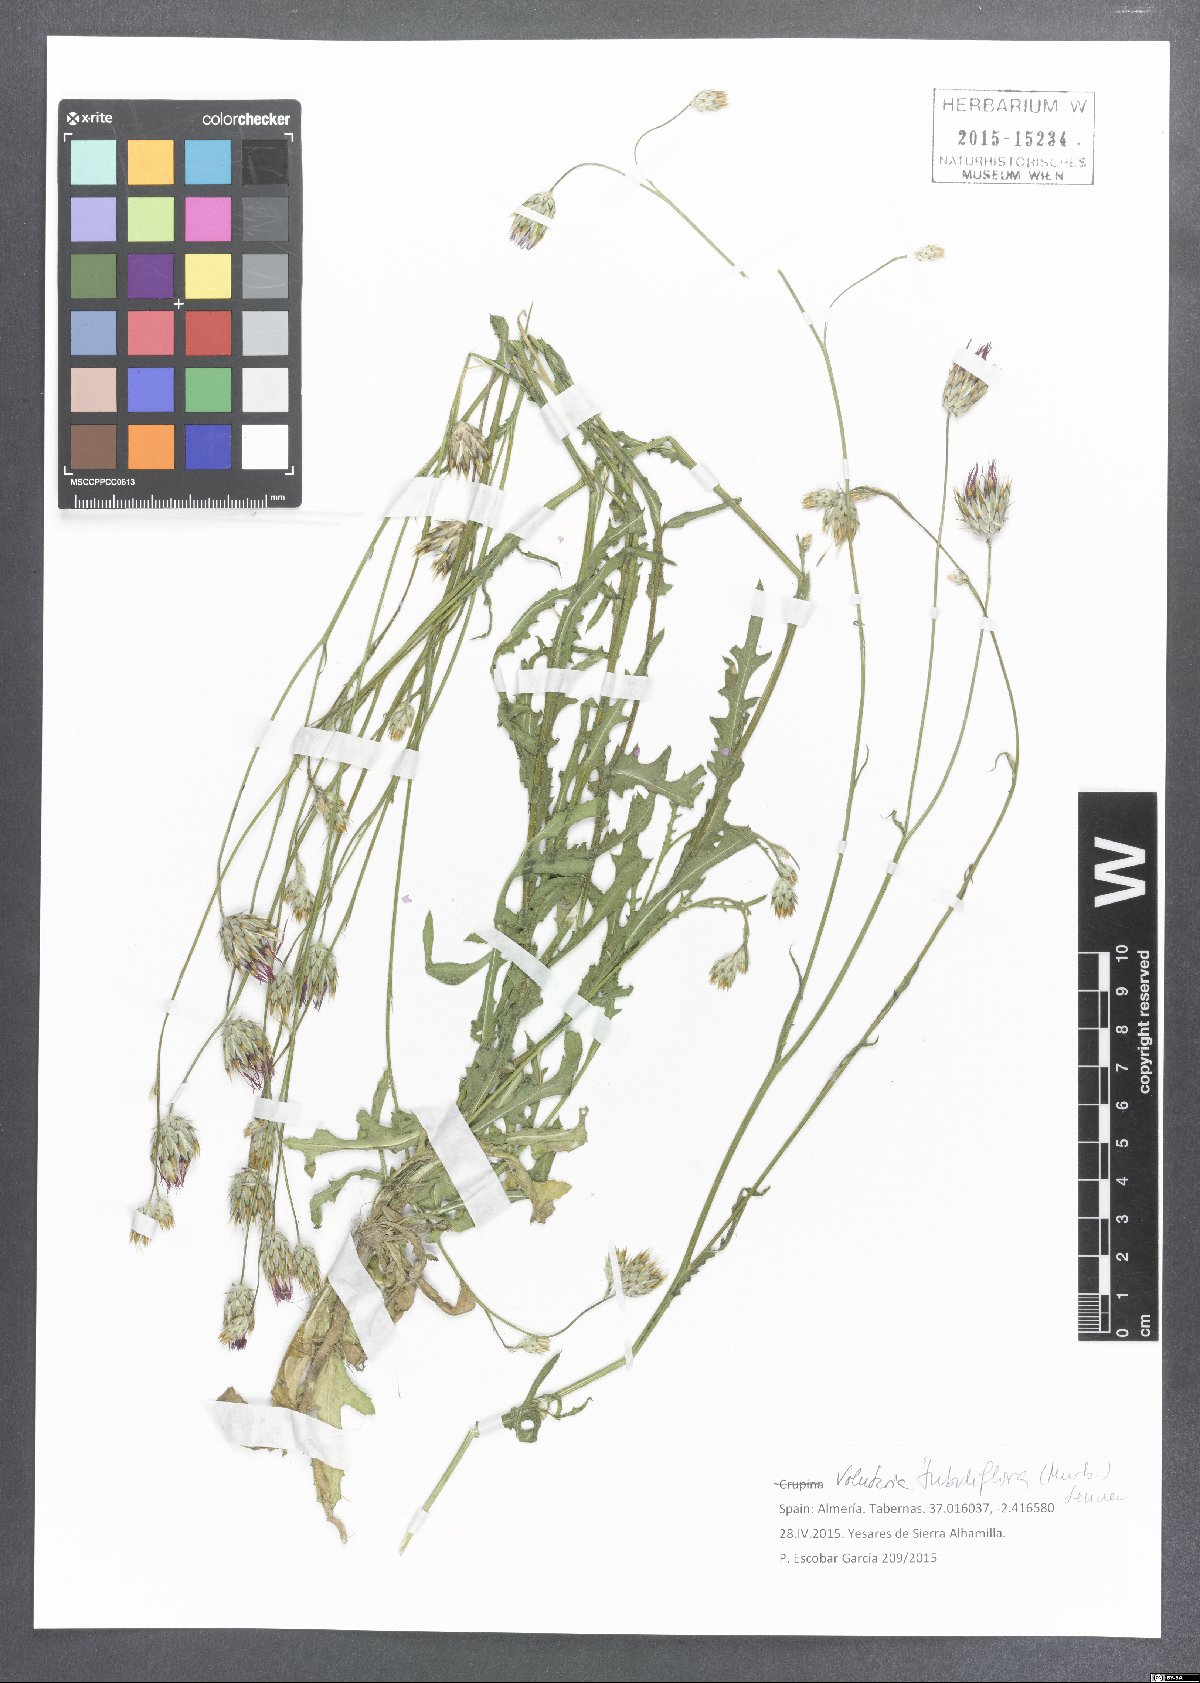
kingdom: Plantae
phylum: Tracheophyta
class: Magnoliopsida
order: Asterales
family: Asteraceae
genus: Volutaria
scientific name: Volutaria tubuliflora
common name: Desert knapweed
